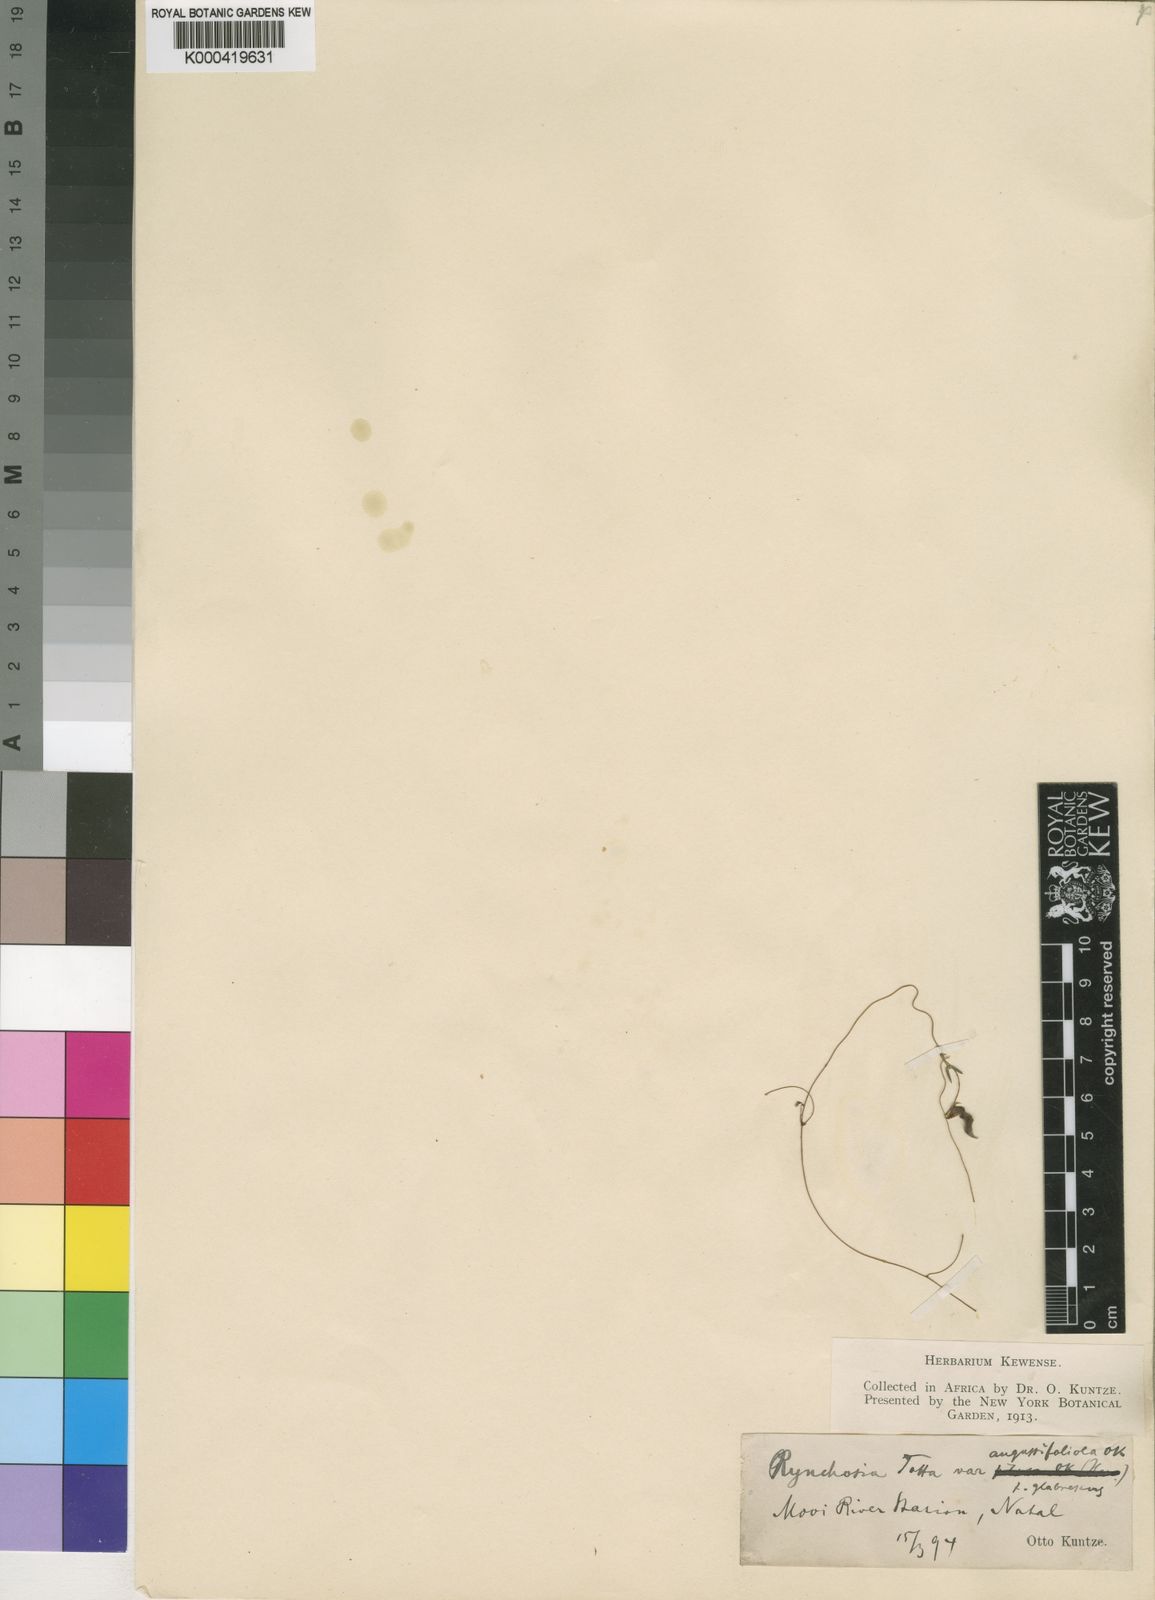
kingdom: Plantae
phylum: Tracheophyta
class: Magnoliopsida
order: Fabales
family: Fabaceae
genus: Rhynchosia
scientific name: Rhynchosia totta
